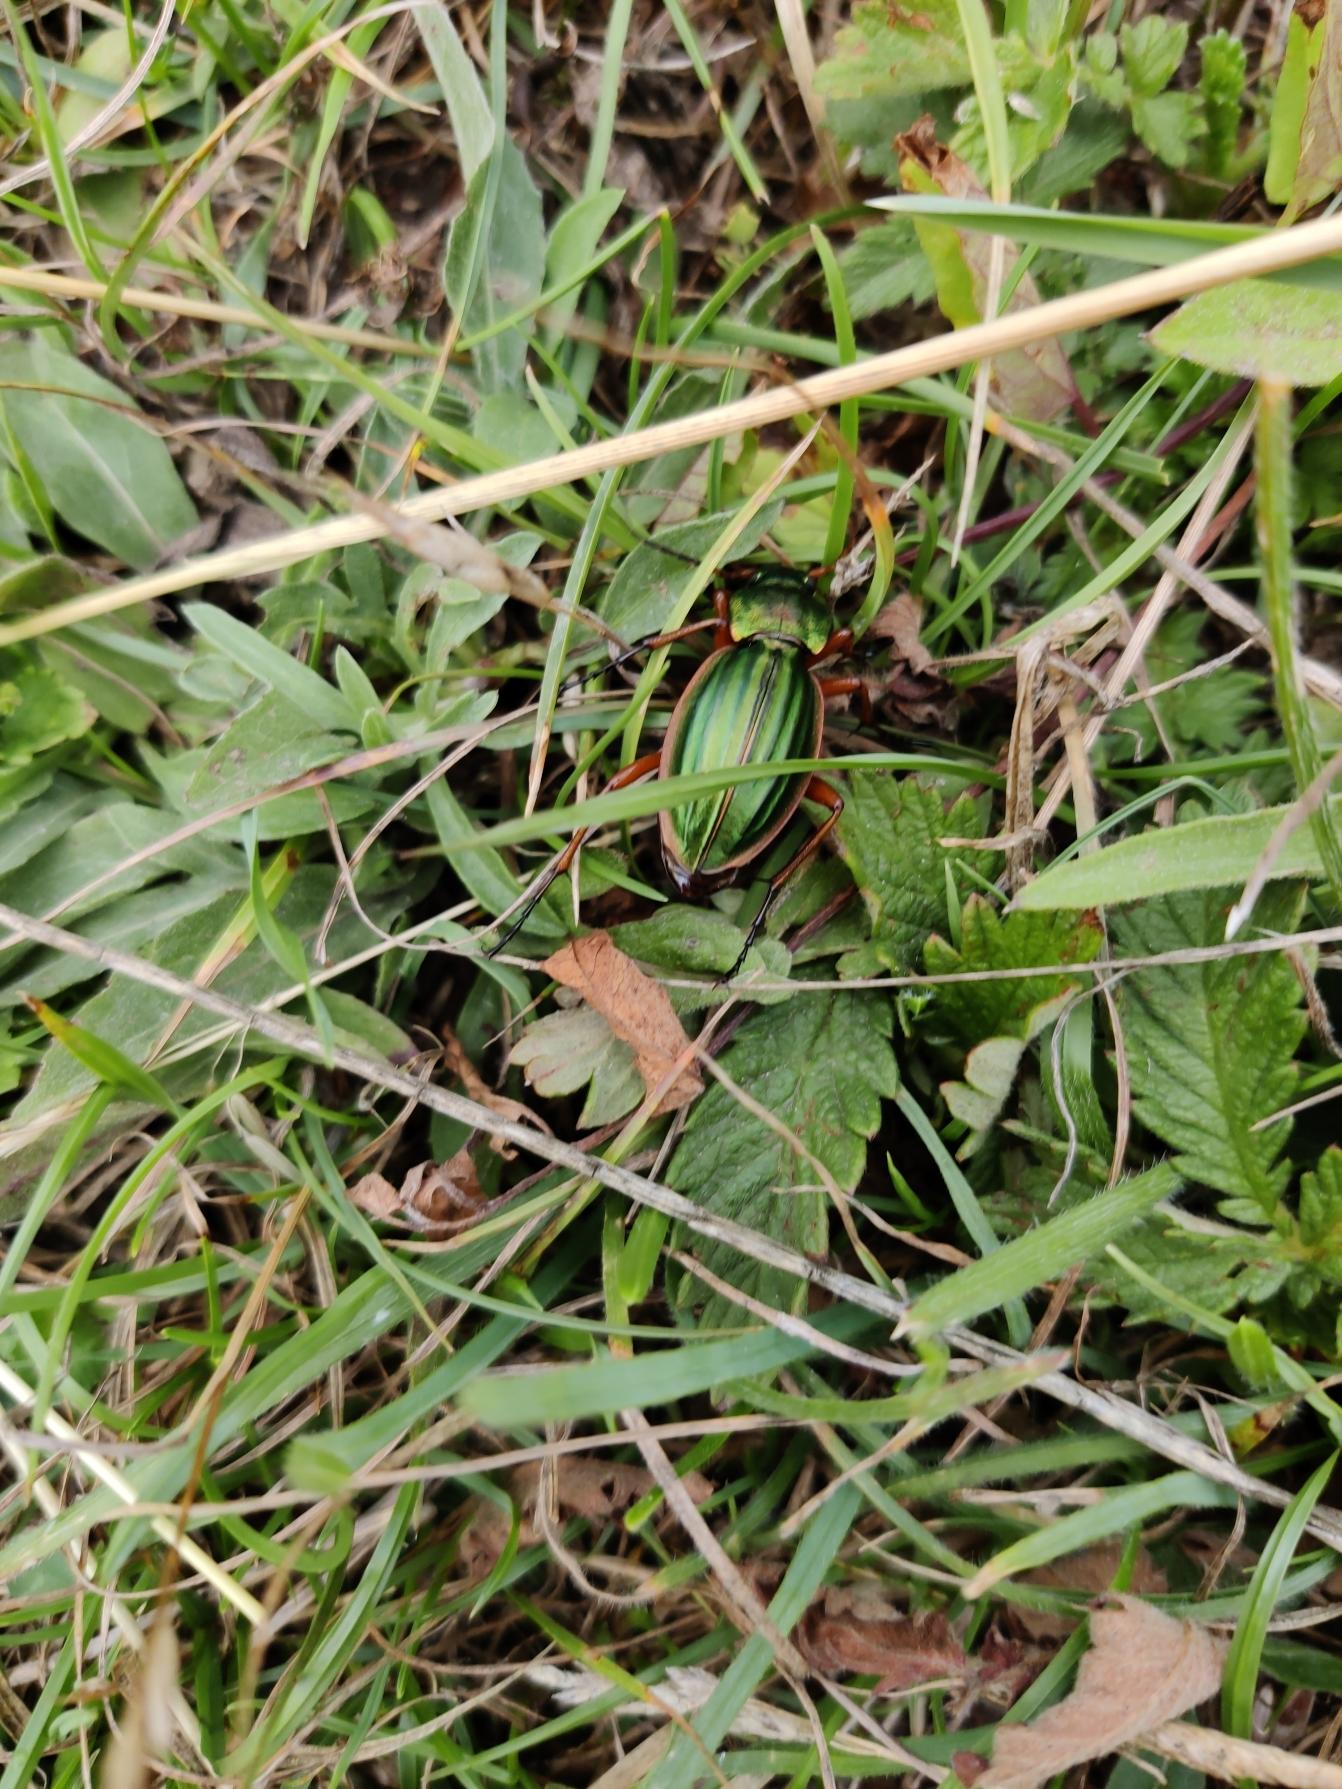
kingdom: Animalia
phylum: Arthropoda
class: Insecta
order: Coleoptera
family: Carabidae
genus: Carabus
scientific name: Carabus auratus
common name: Stor guldløber
